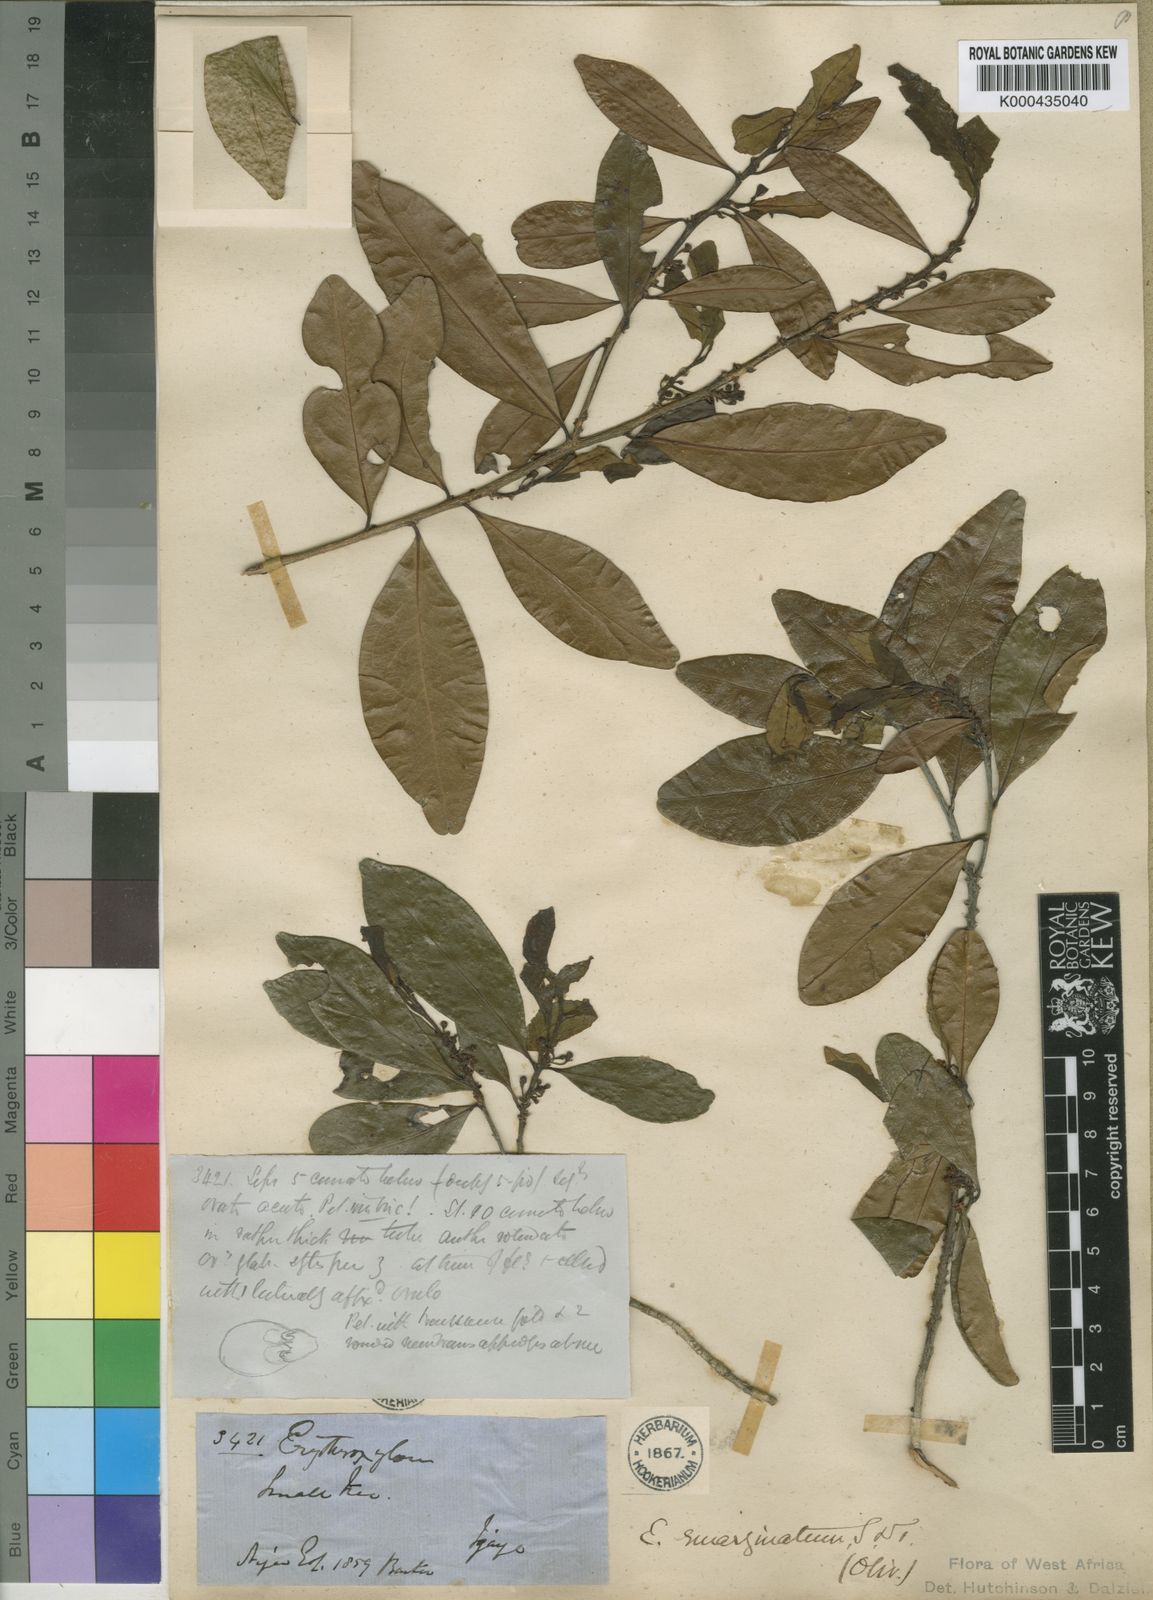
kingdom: Plantae
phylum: Tracheophyta
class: Magnoliopsida
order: Malpighiales
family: Erythroxylaceae
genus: Erythroxylum
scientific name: Erythroxylum emarginatum
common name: African coca-tree
